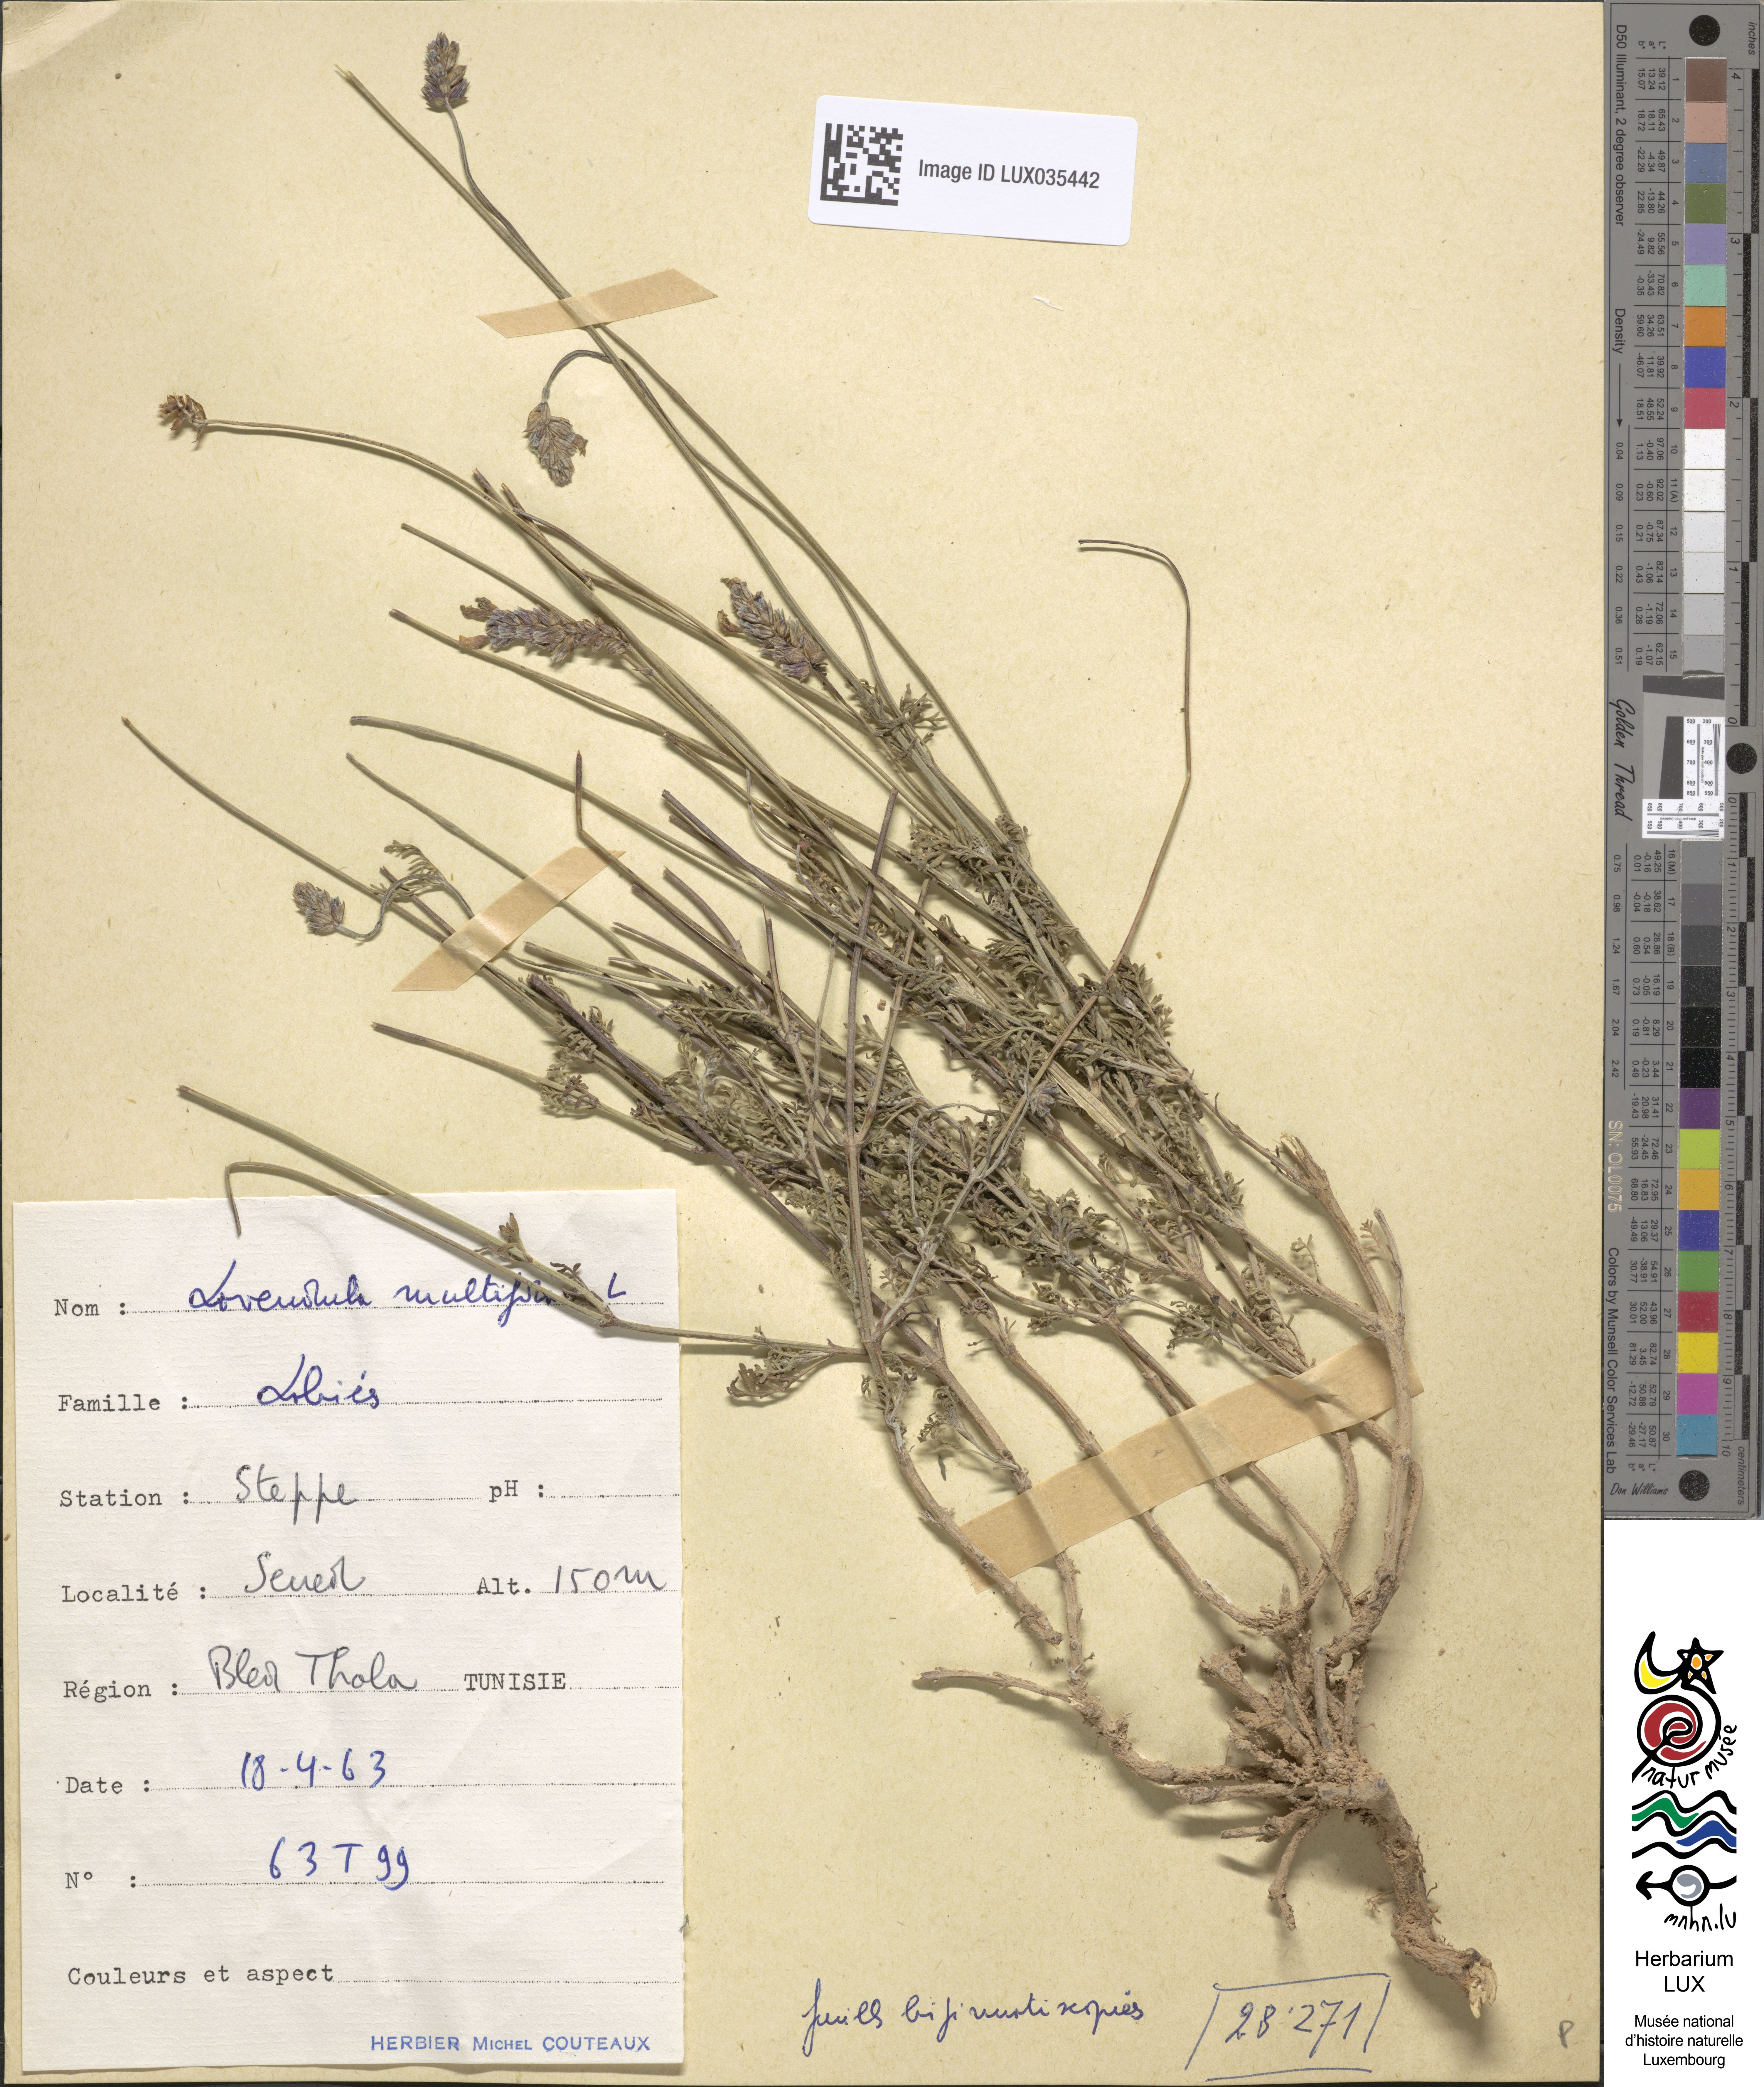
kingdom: Plantae
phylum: Tracheophyta
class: Magnoliopsida
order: Lamiales
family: Lamiaceae
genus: Lavandula
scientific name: Lavandula multifida
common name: Fern-leaf lavender
